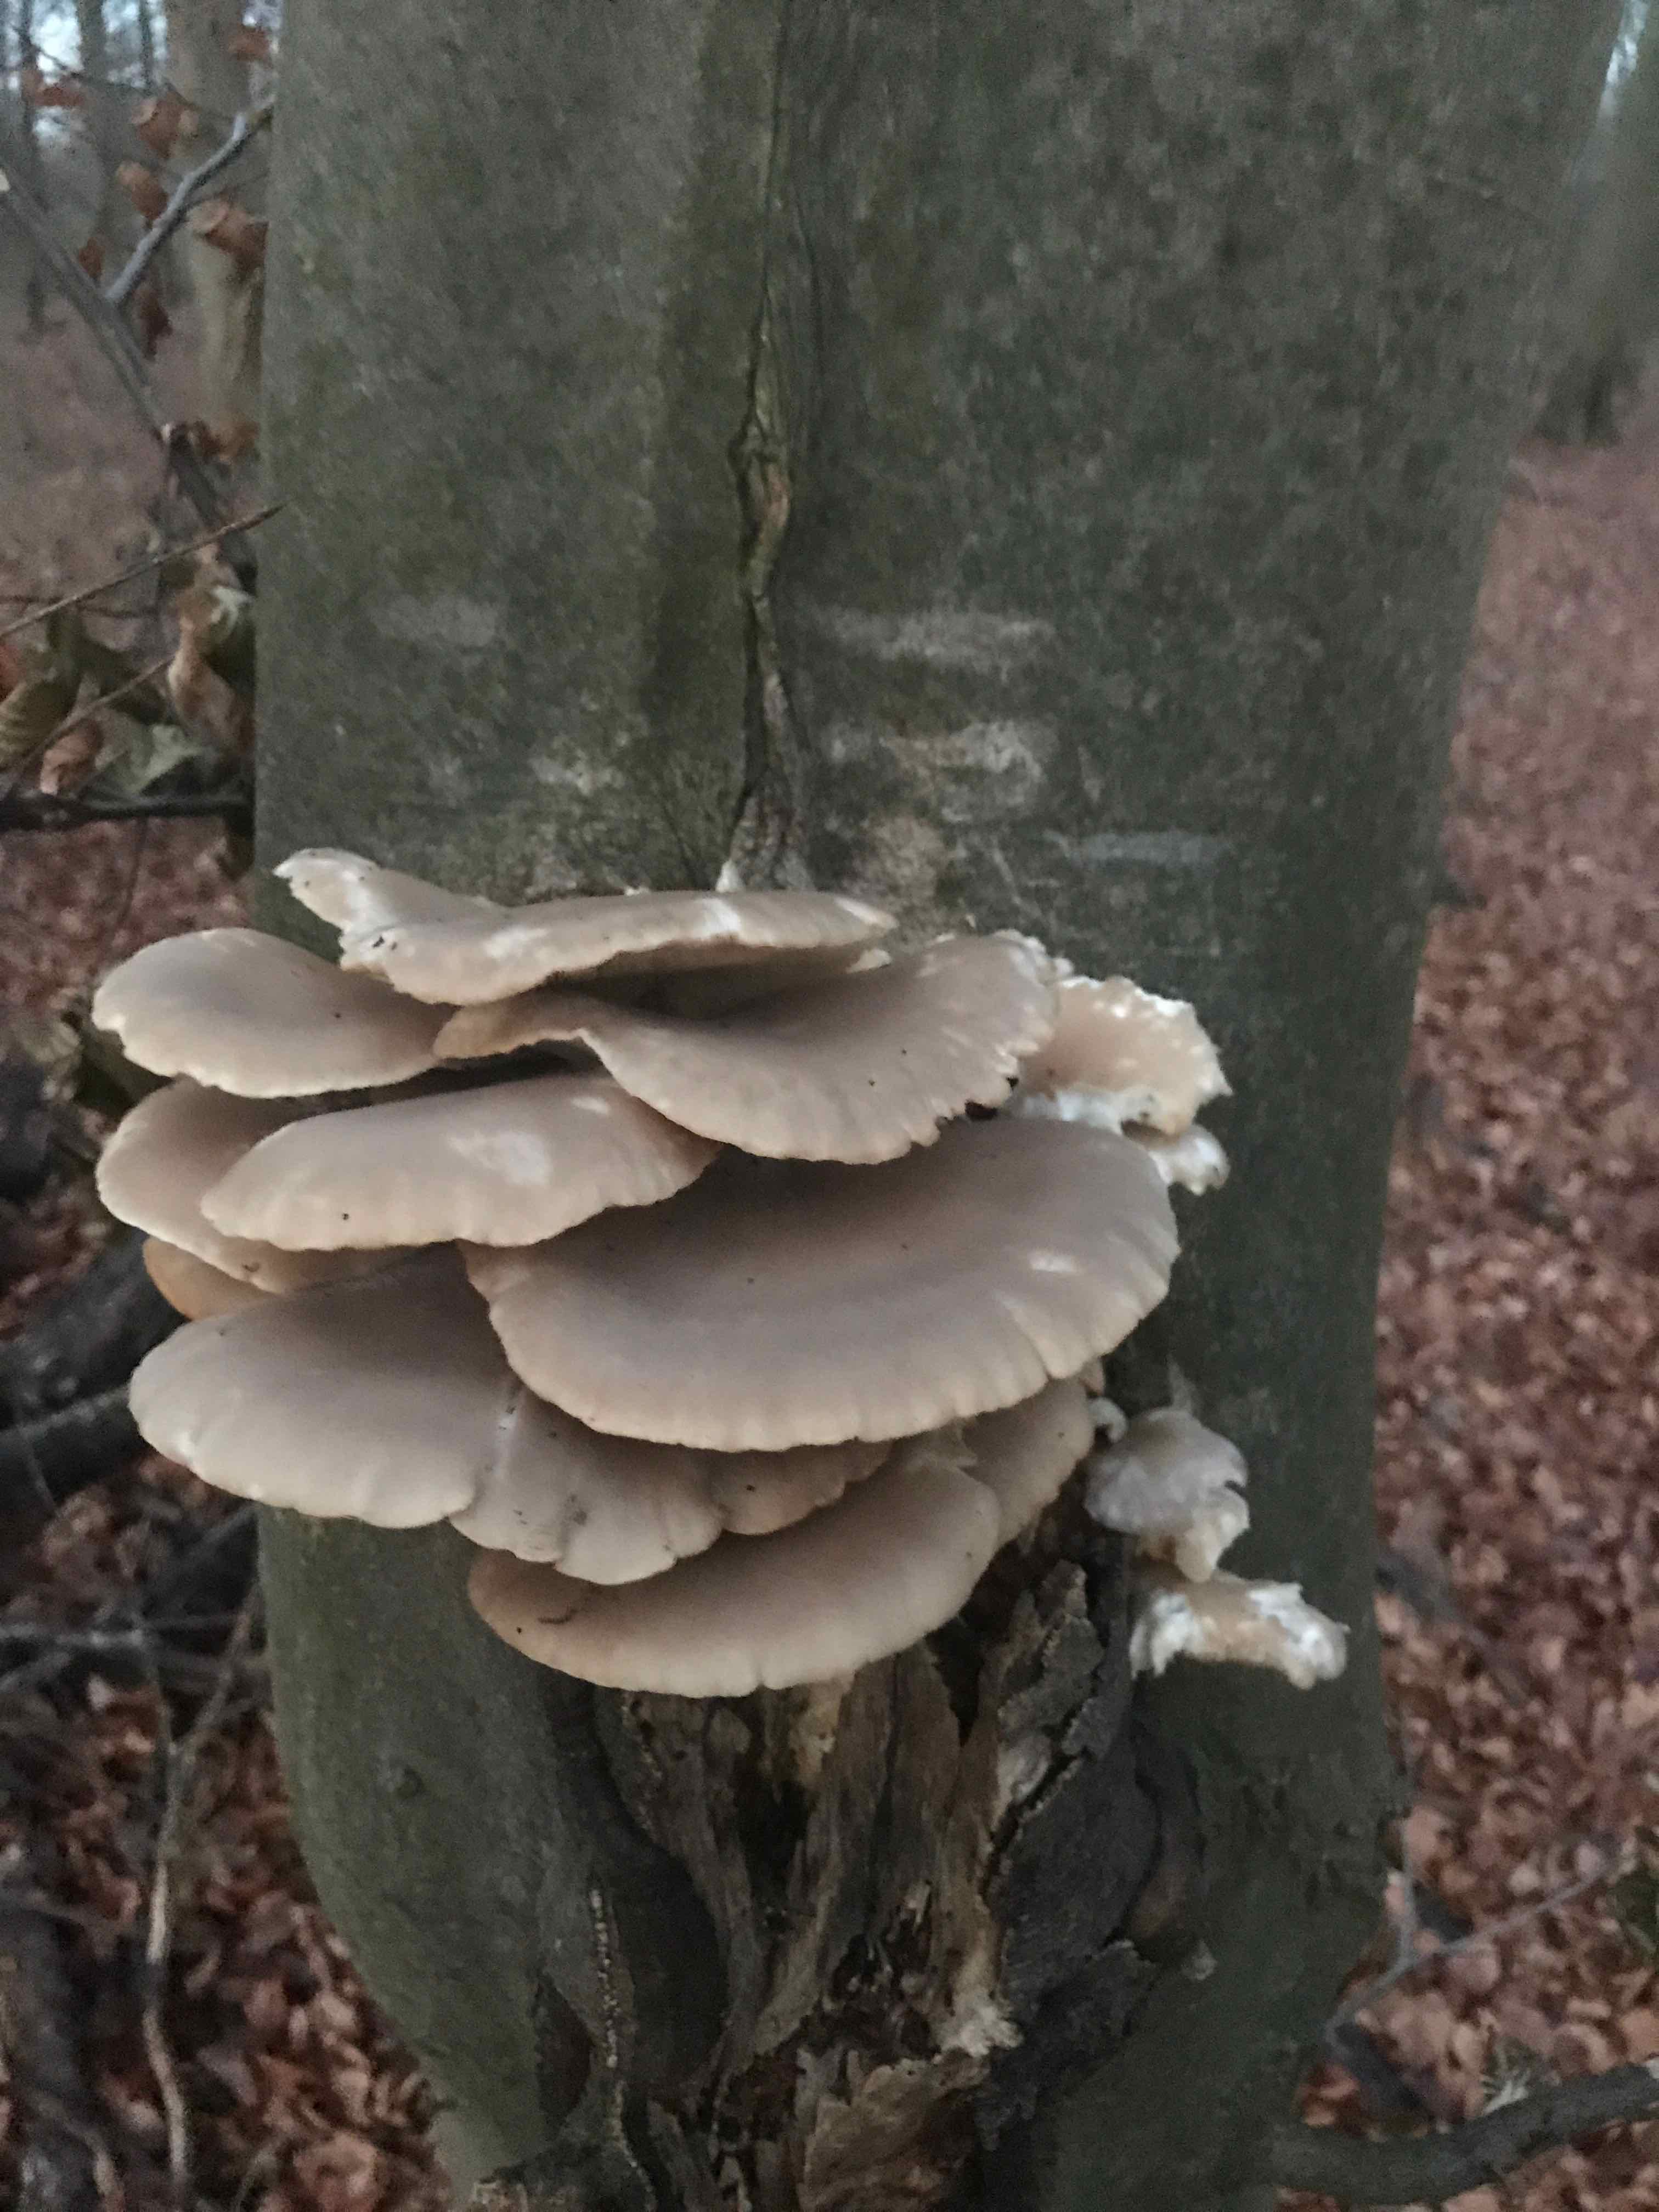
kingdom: Fungi
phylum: Basidiomycota
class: Agaricomycetes
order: Agaricales
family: Pleurotaceae
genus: Pleurotus
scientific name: Pleurotus ostreatus
